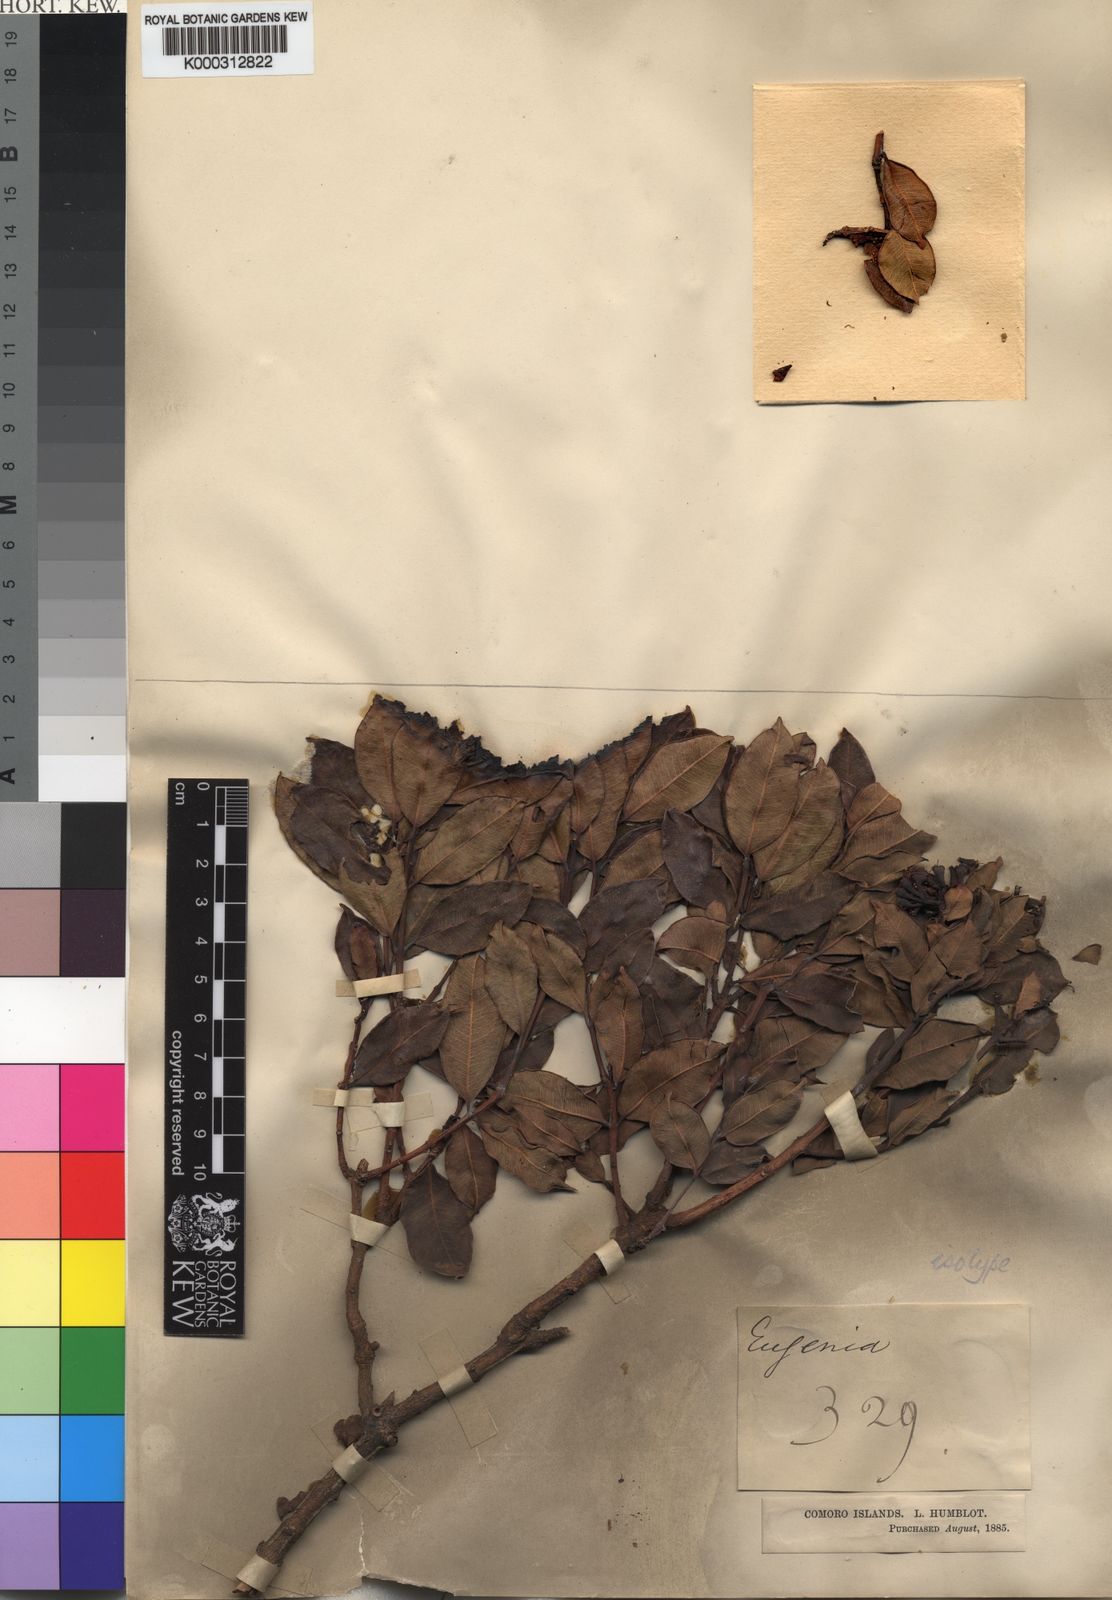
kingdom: Plantae
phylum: Tracheophyta
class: Magnoliopsida
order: Myrtales
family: Myrtaceae
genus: Syzygium
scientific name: Syzygium humblotii
